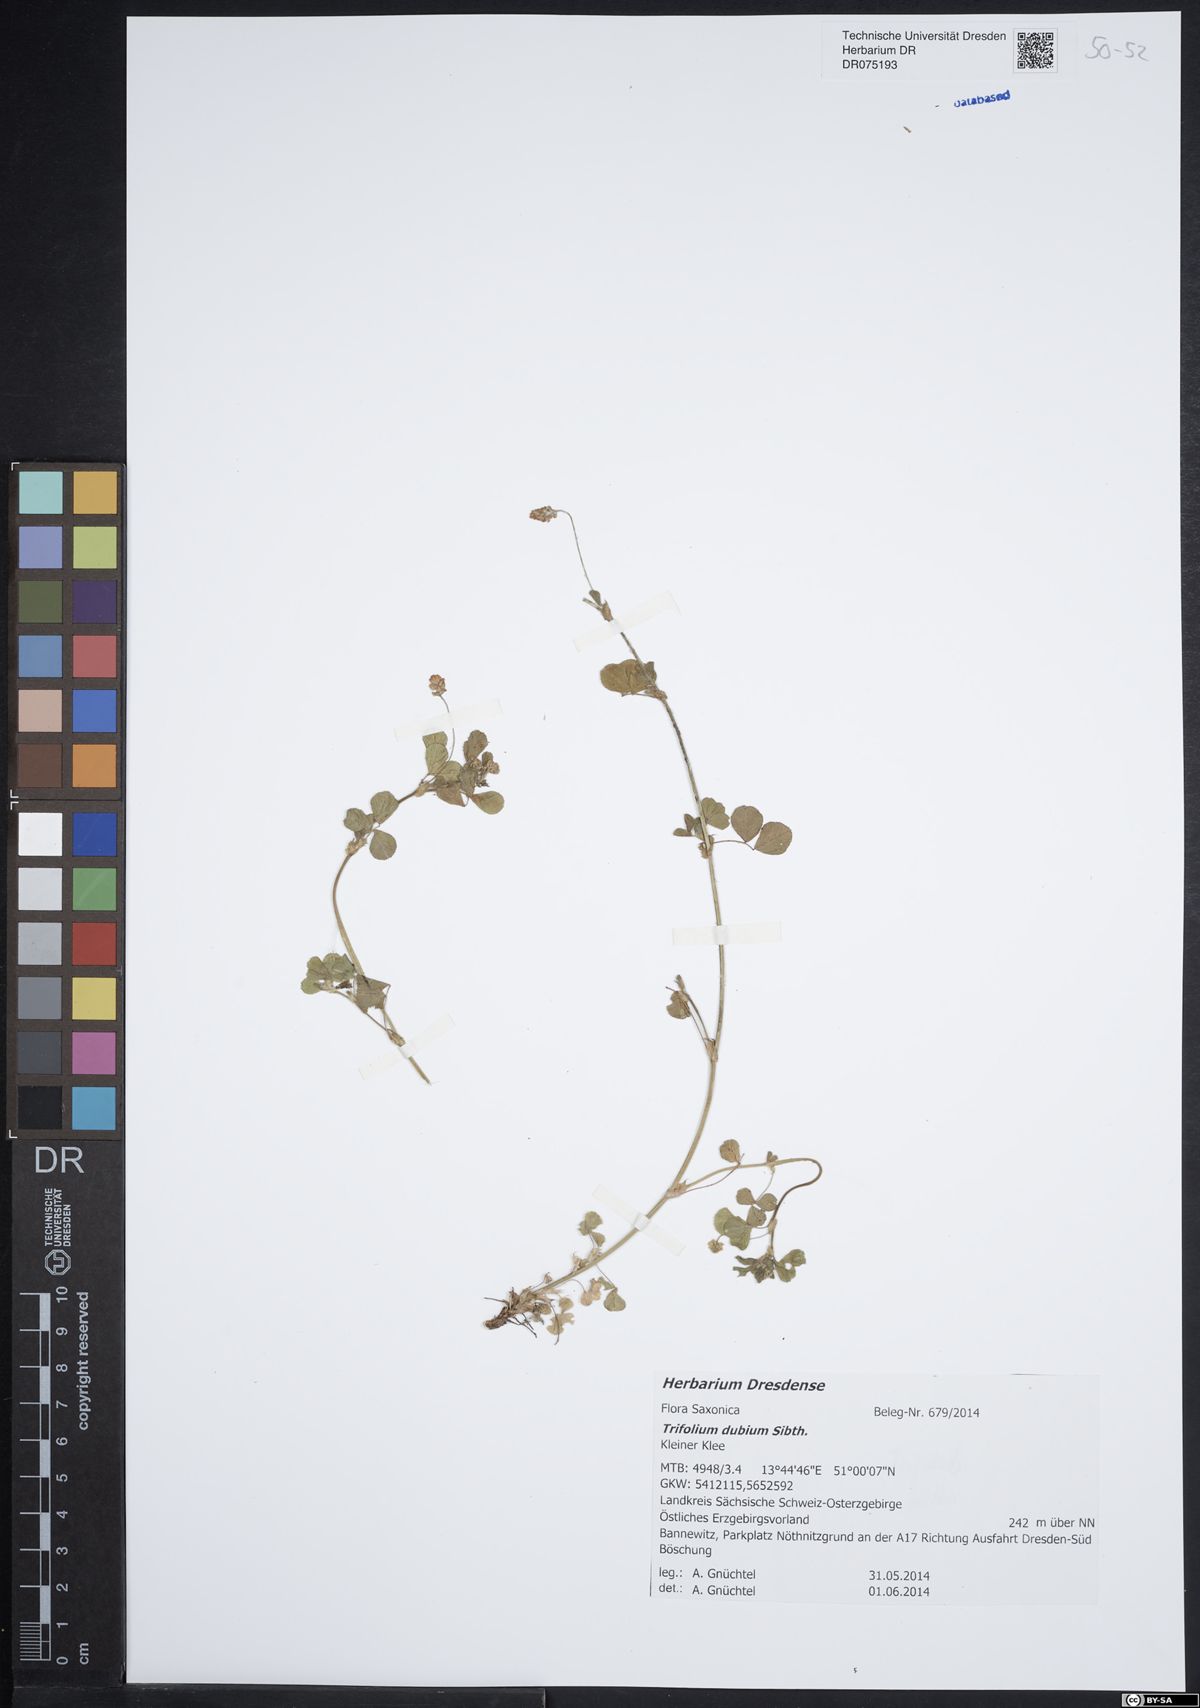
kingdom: Plantae
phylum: Tracheophyta
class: Magnoliopsida
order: Fabales
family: Fabaceae
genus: Trifolium
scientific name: Trifolium dubium
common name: Suckling clover
